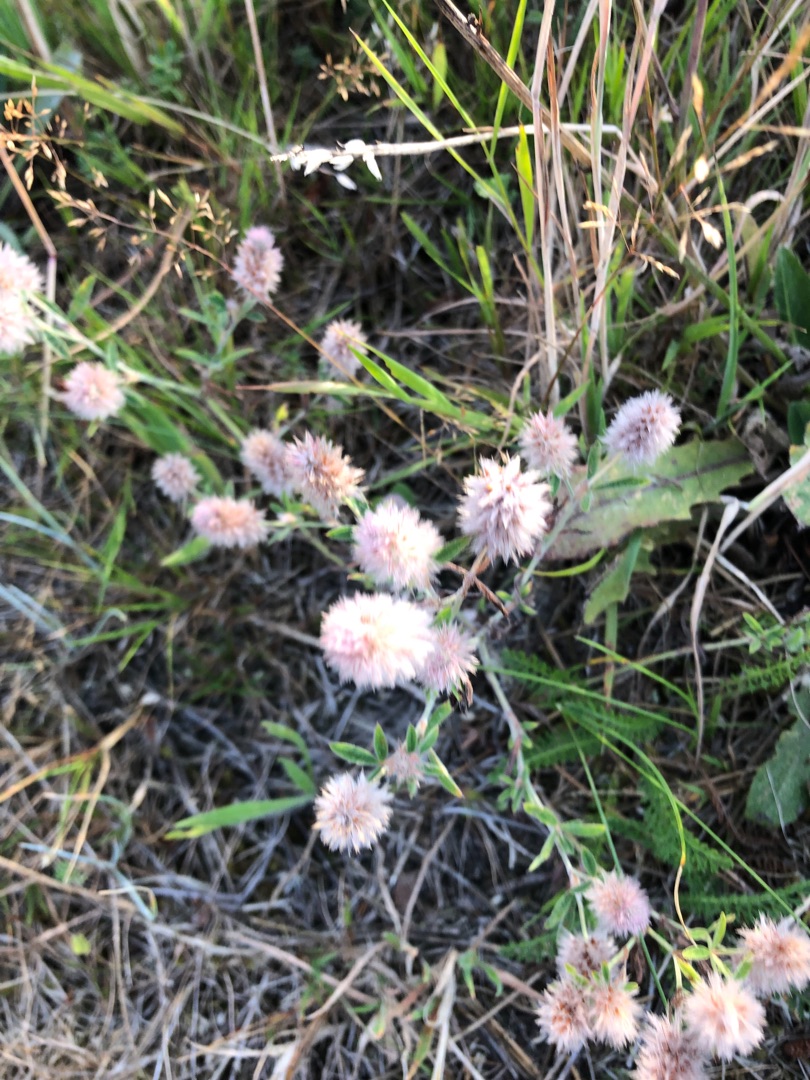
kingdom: Plantae
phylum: Tracheophyta
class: Magnoliopsida
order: Fabales
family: Fabaceae
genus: Trifolium
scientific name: Trifolium arvense
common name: Hare-kløver
